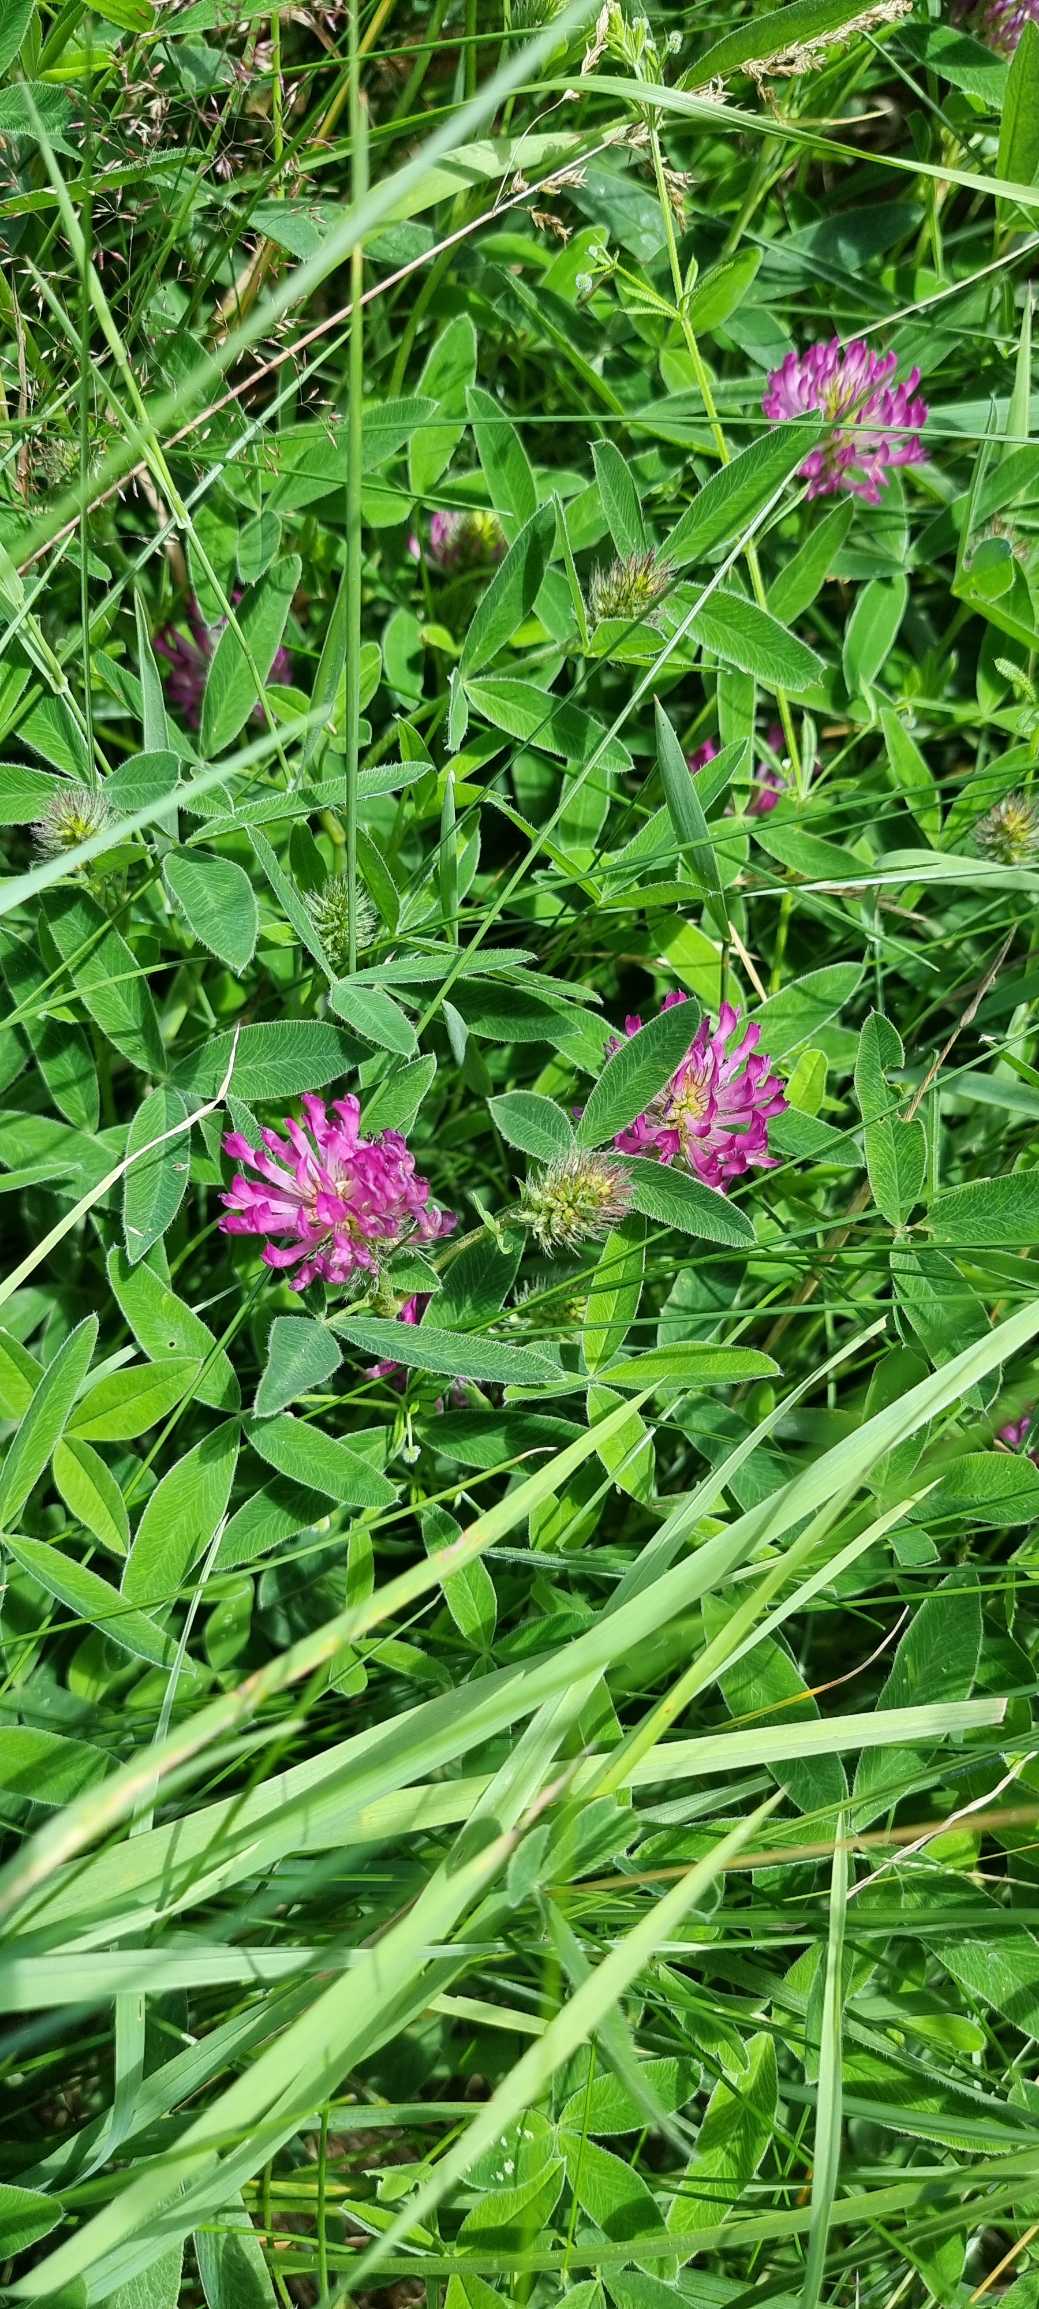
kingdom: Plantae
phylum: Tracheophyta
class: Magnoliopsida
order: Fabales
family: Fabaceae
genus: Trifolium
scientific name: Trifolium medium
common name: Bugtet kløver
